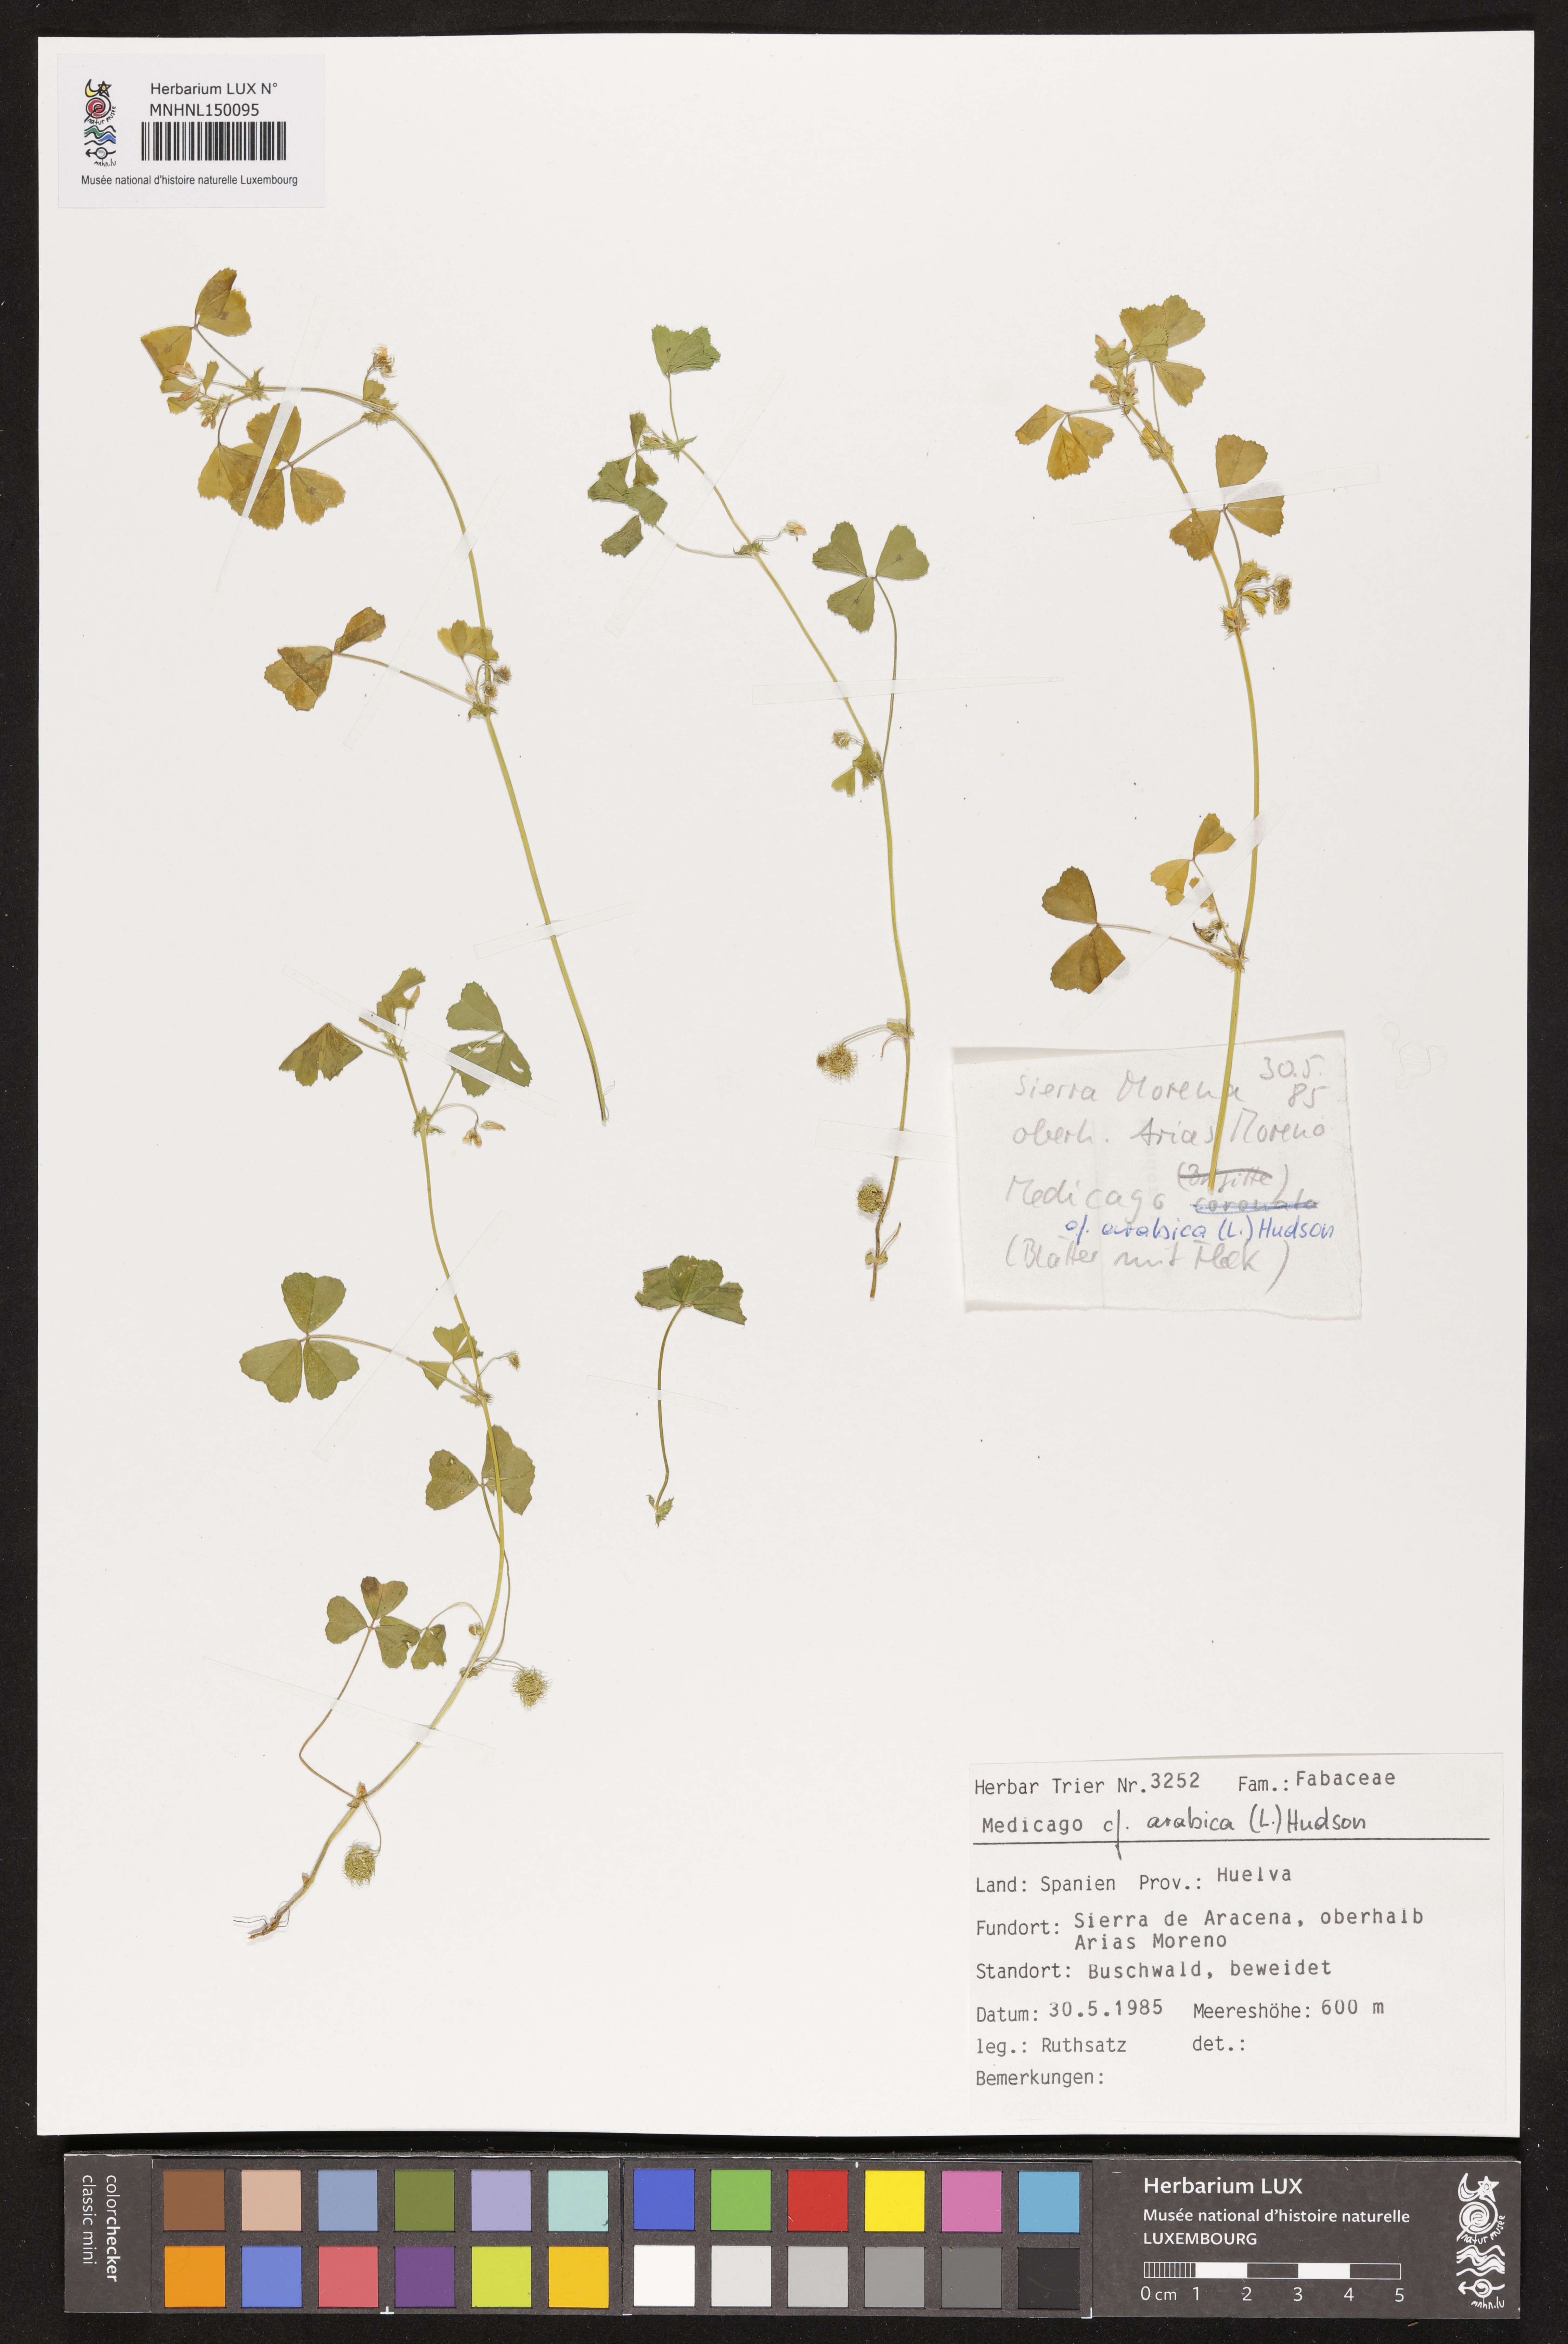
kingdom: Plantae
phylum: Tracheophyta
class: Magnoliopsida
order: Fabales
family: Fabaceae
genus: Medicago
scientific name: Medicago arabica
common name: Spotted medick
